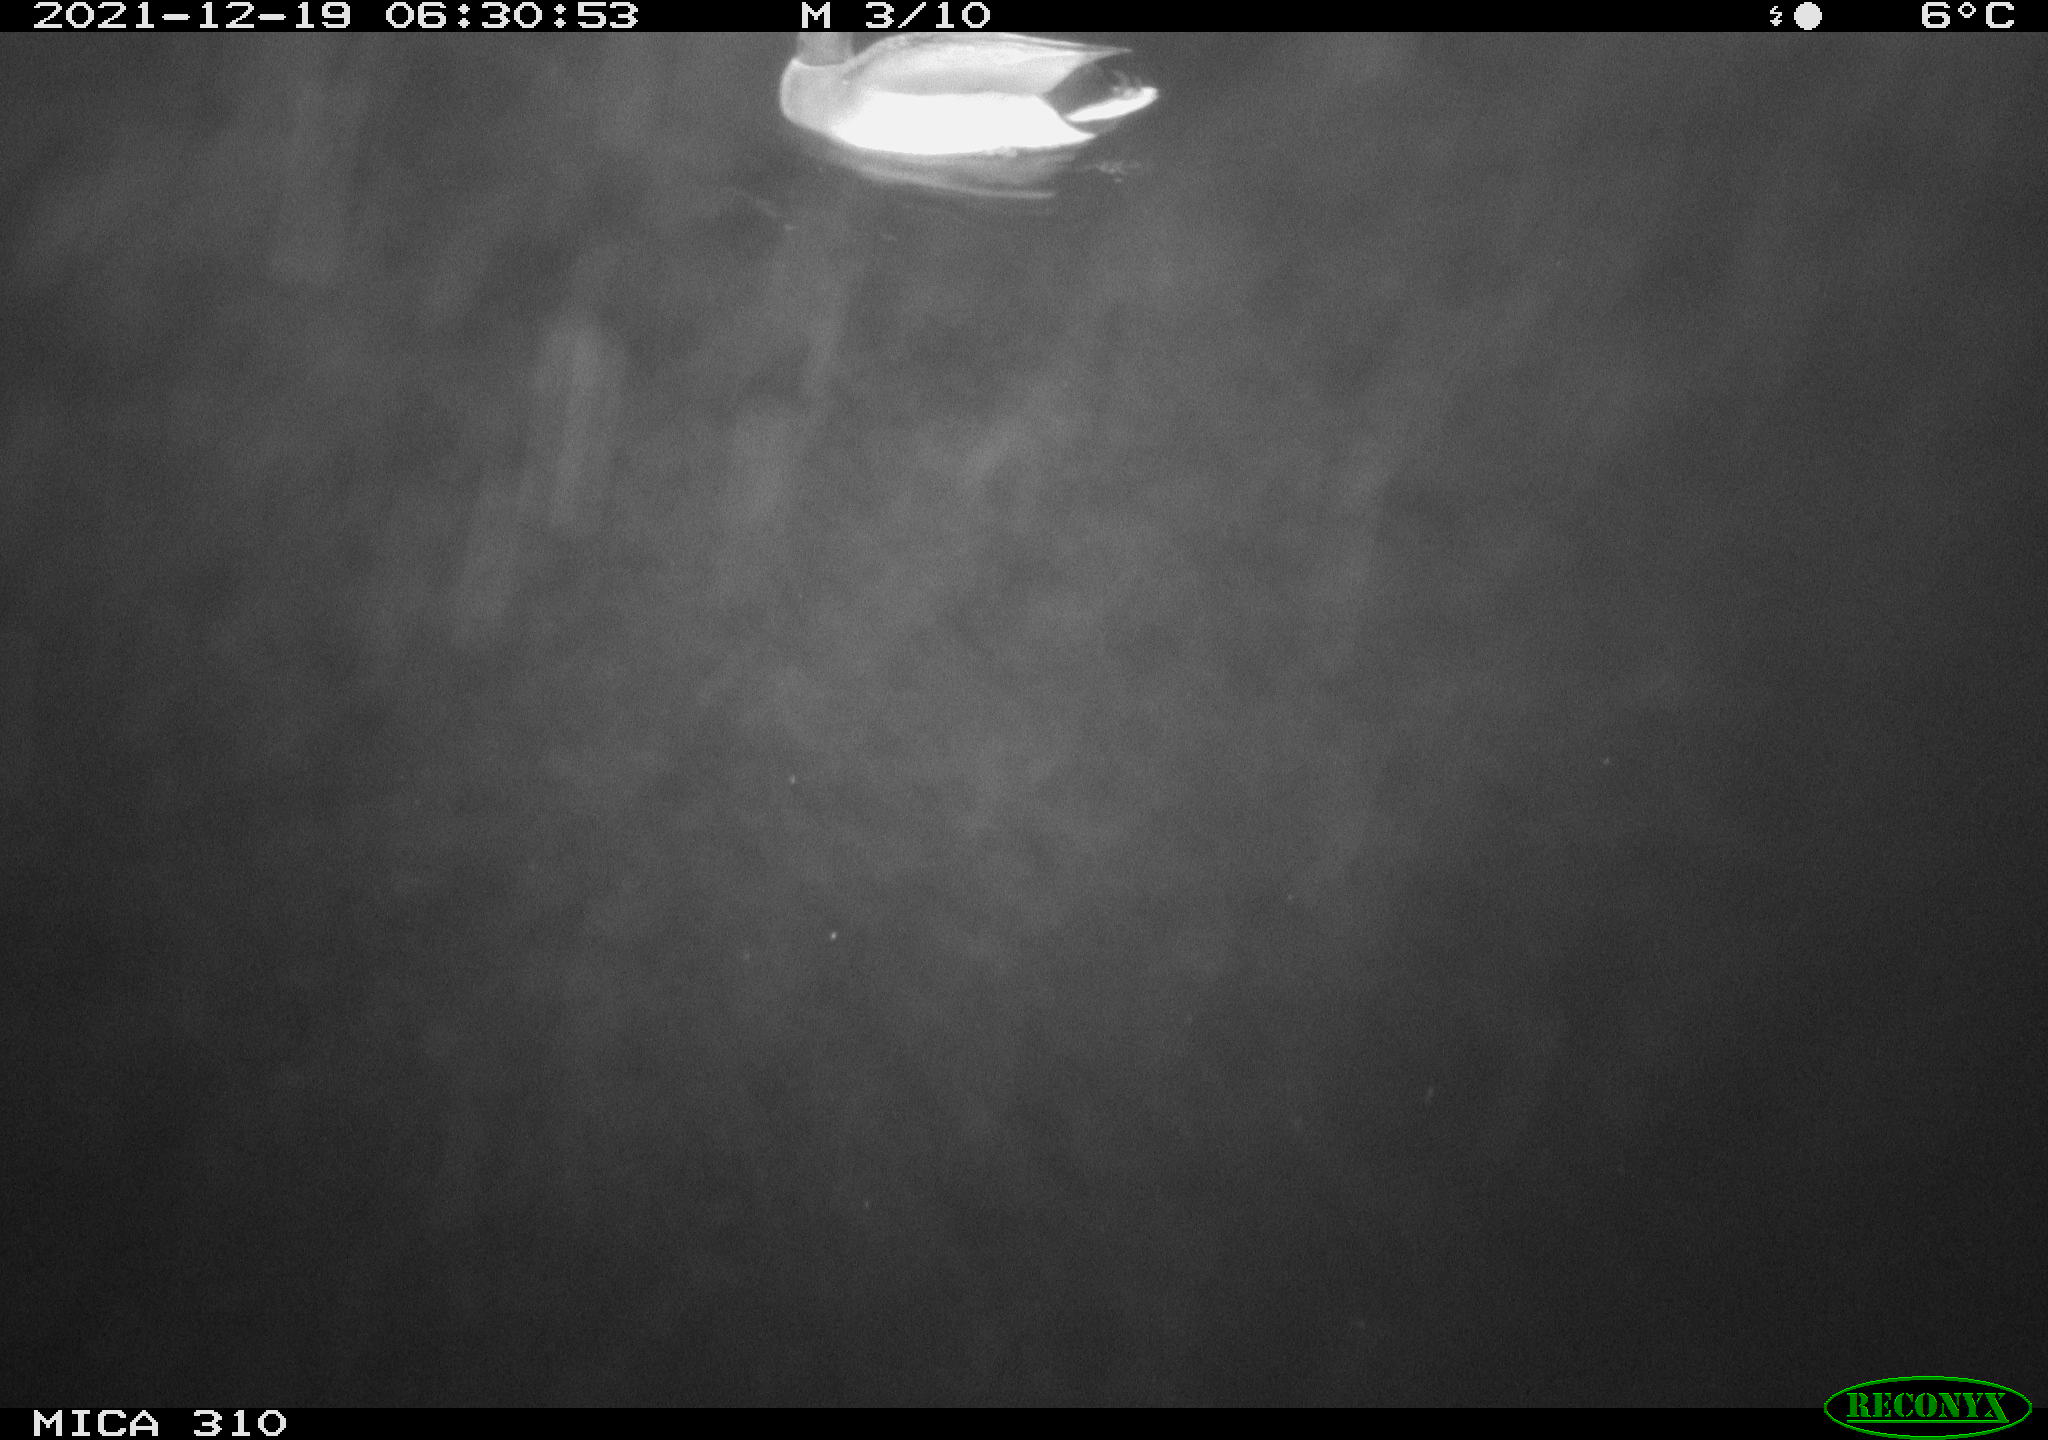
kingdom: Animalia
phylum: Chordata
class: Aves
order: Anseriformes
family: Anatidae
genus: Anas
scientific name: Anas platyrhynchos
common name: Mallard
